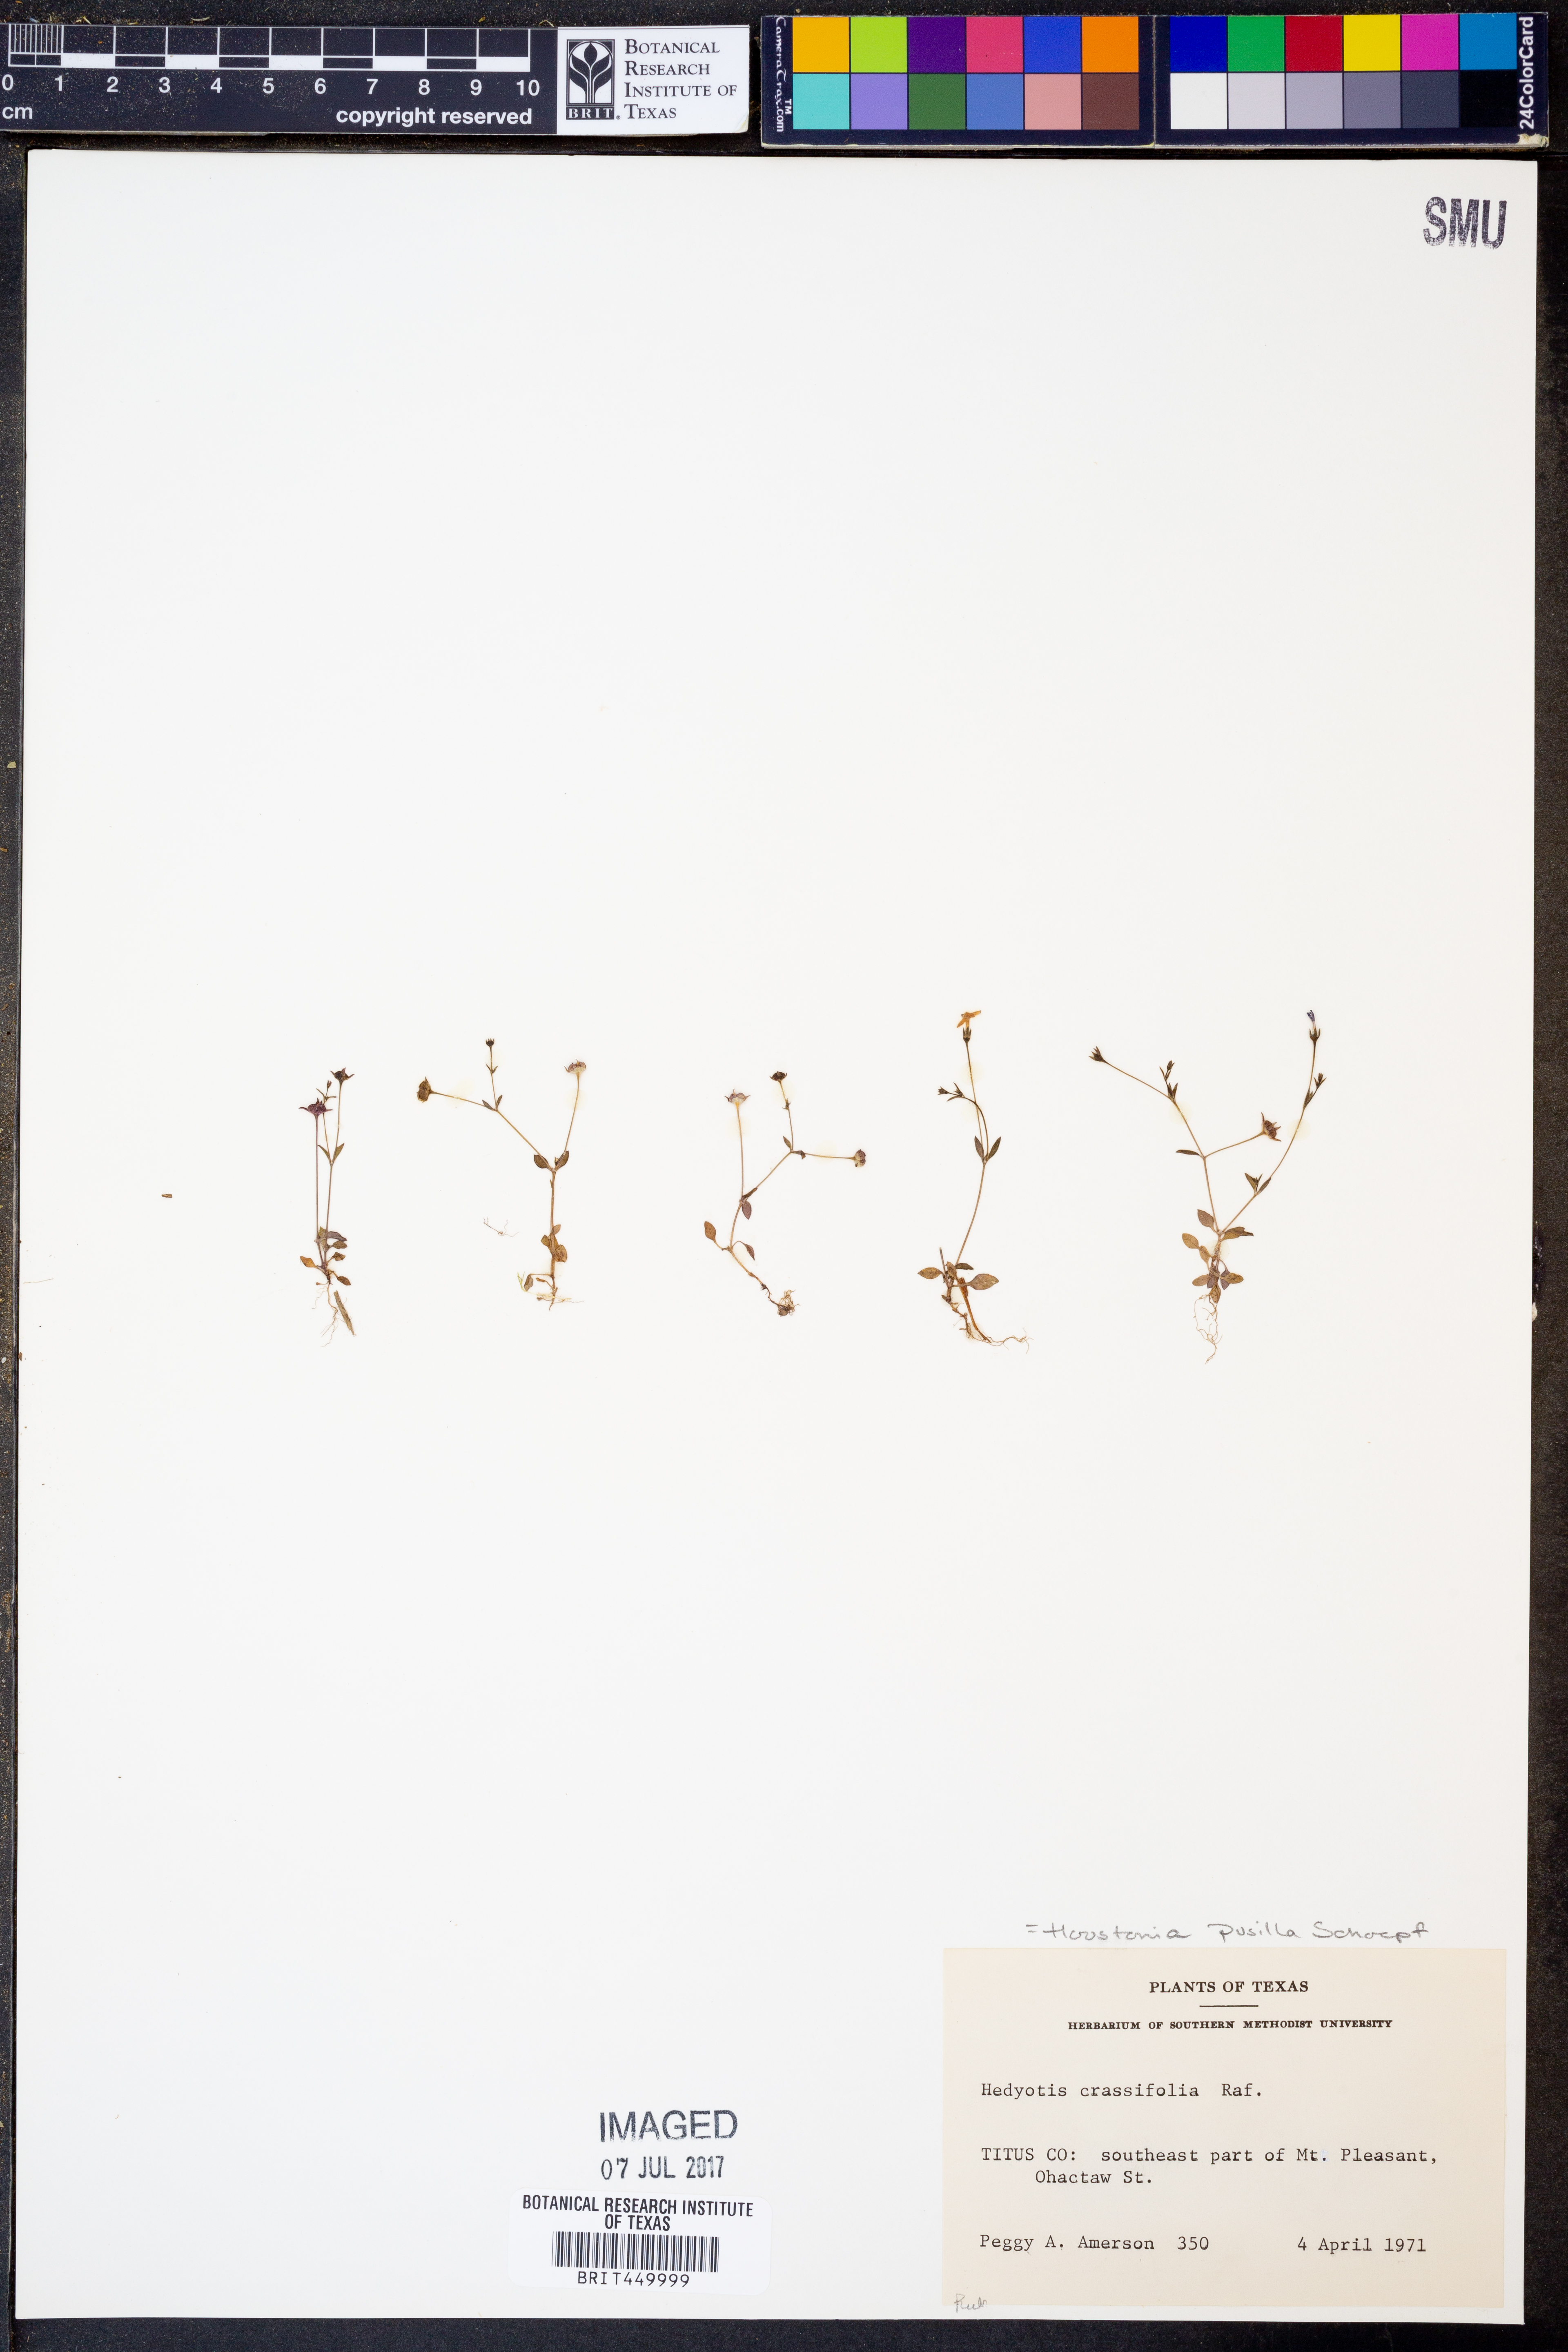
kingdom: Plantae
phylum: Tracheophyta
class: Magnoliopsida
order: Gentianales
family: Rubiaceae
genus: Houstonia
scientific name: Houstonia pusilla
